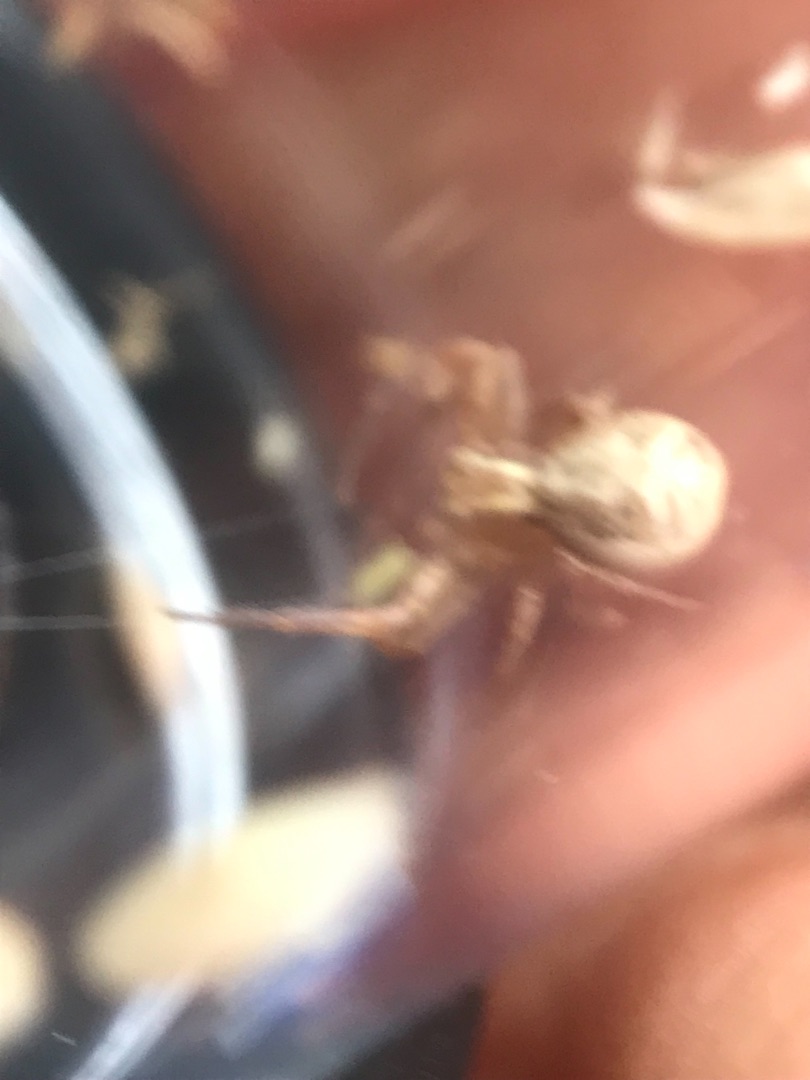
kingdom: Animalia
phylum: Arthropoda
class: Arachnida
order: Araneae
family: Thomisidae
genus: Xysticus
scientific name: Xysticus cristatus
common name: Almindelig krabbeedderkop
